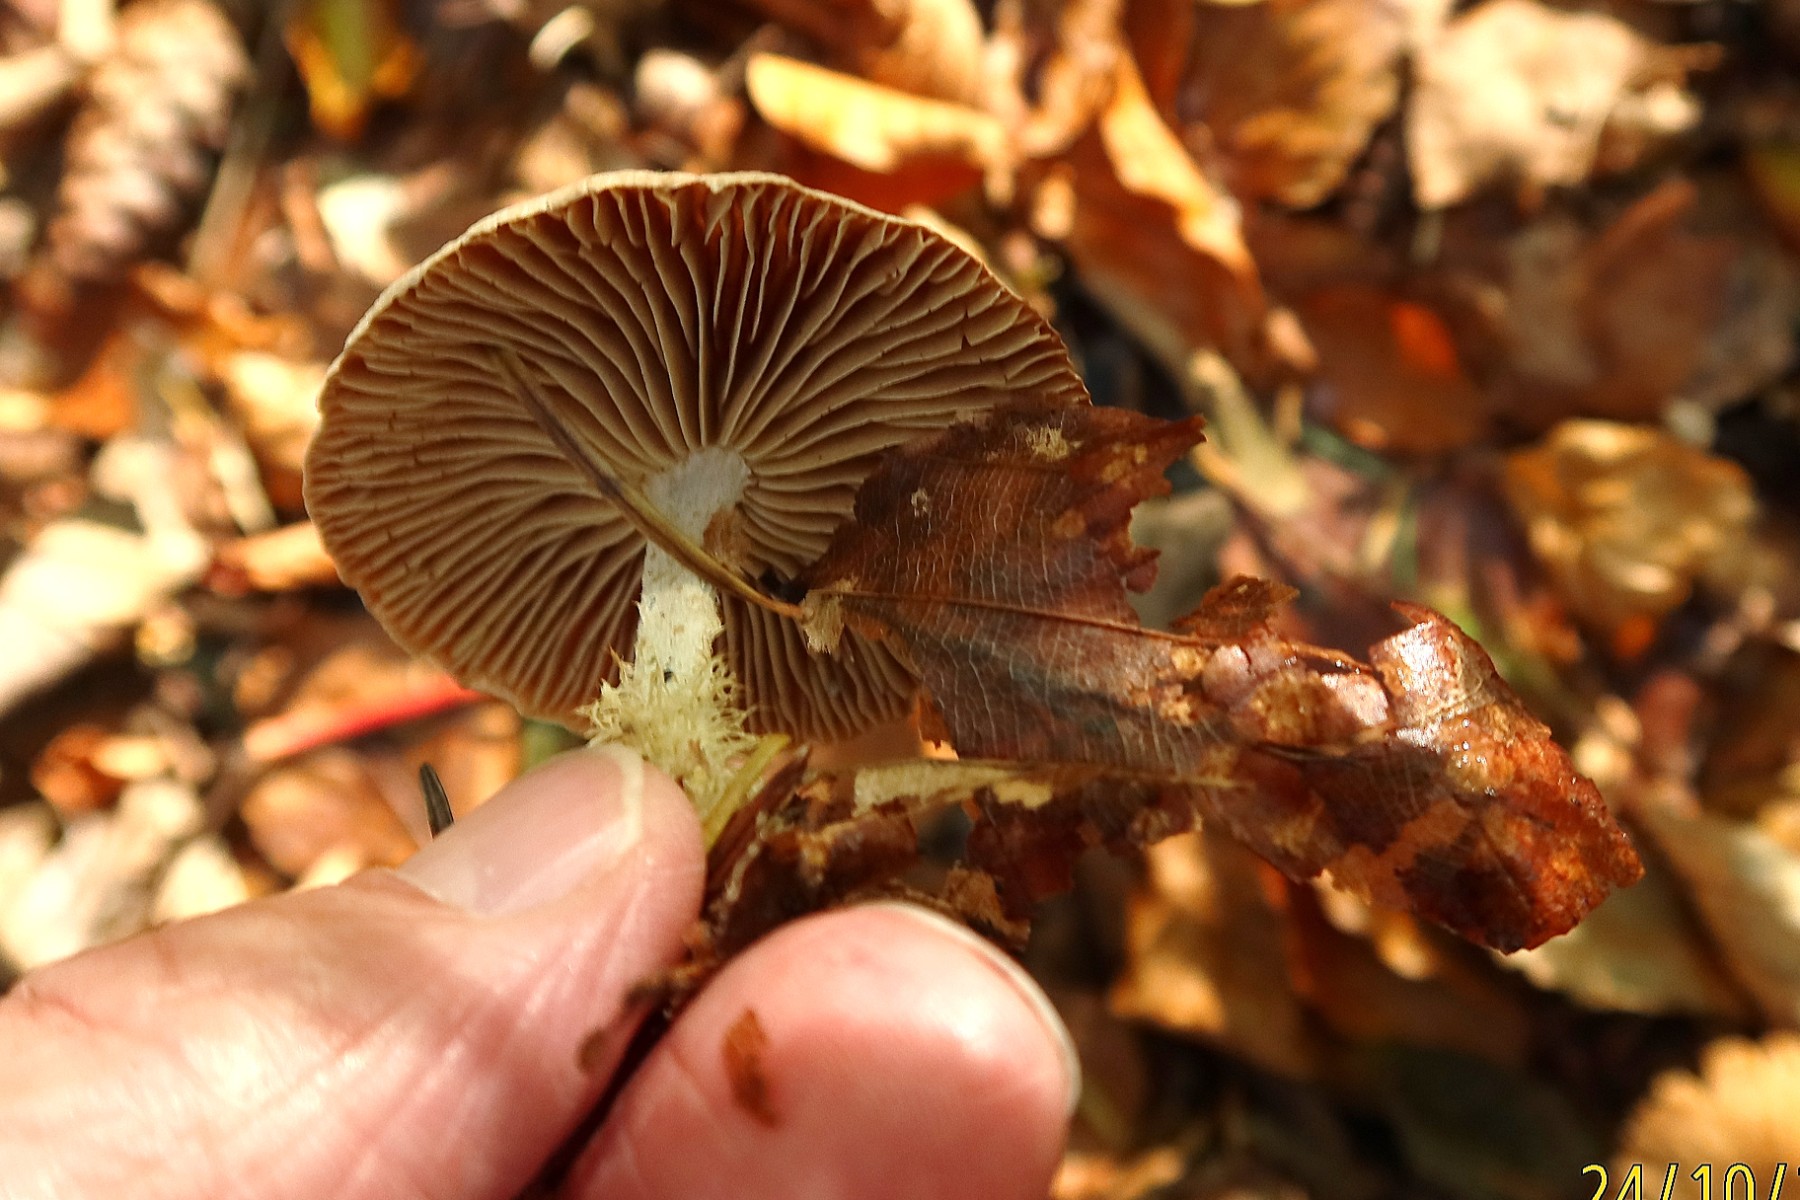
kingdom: Fungi
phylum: Basidiomycota
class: Agaricomycetes
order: Agaricales
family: Omphalotaceae
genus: Collybiopsis
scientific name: Collybiopsis peronata
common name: bestøvlet fladhat
